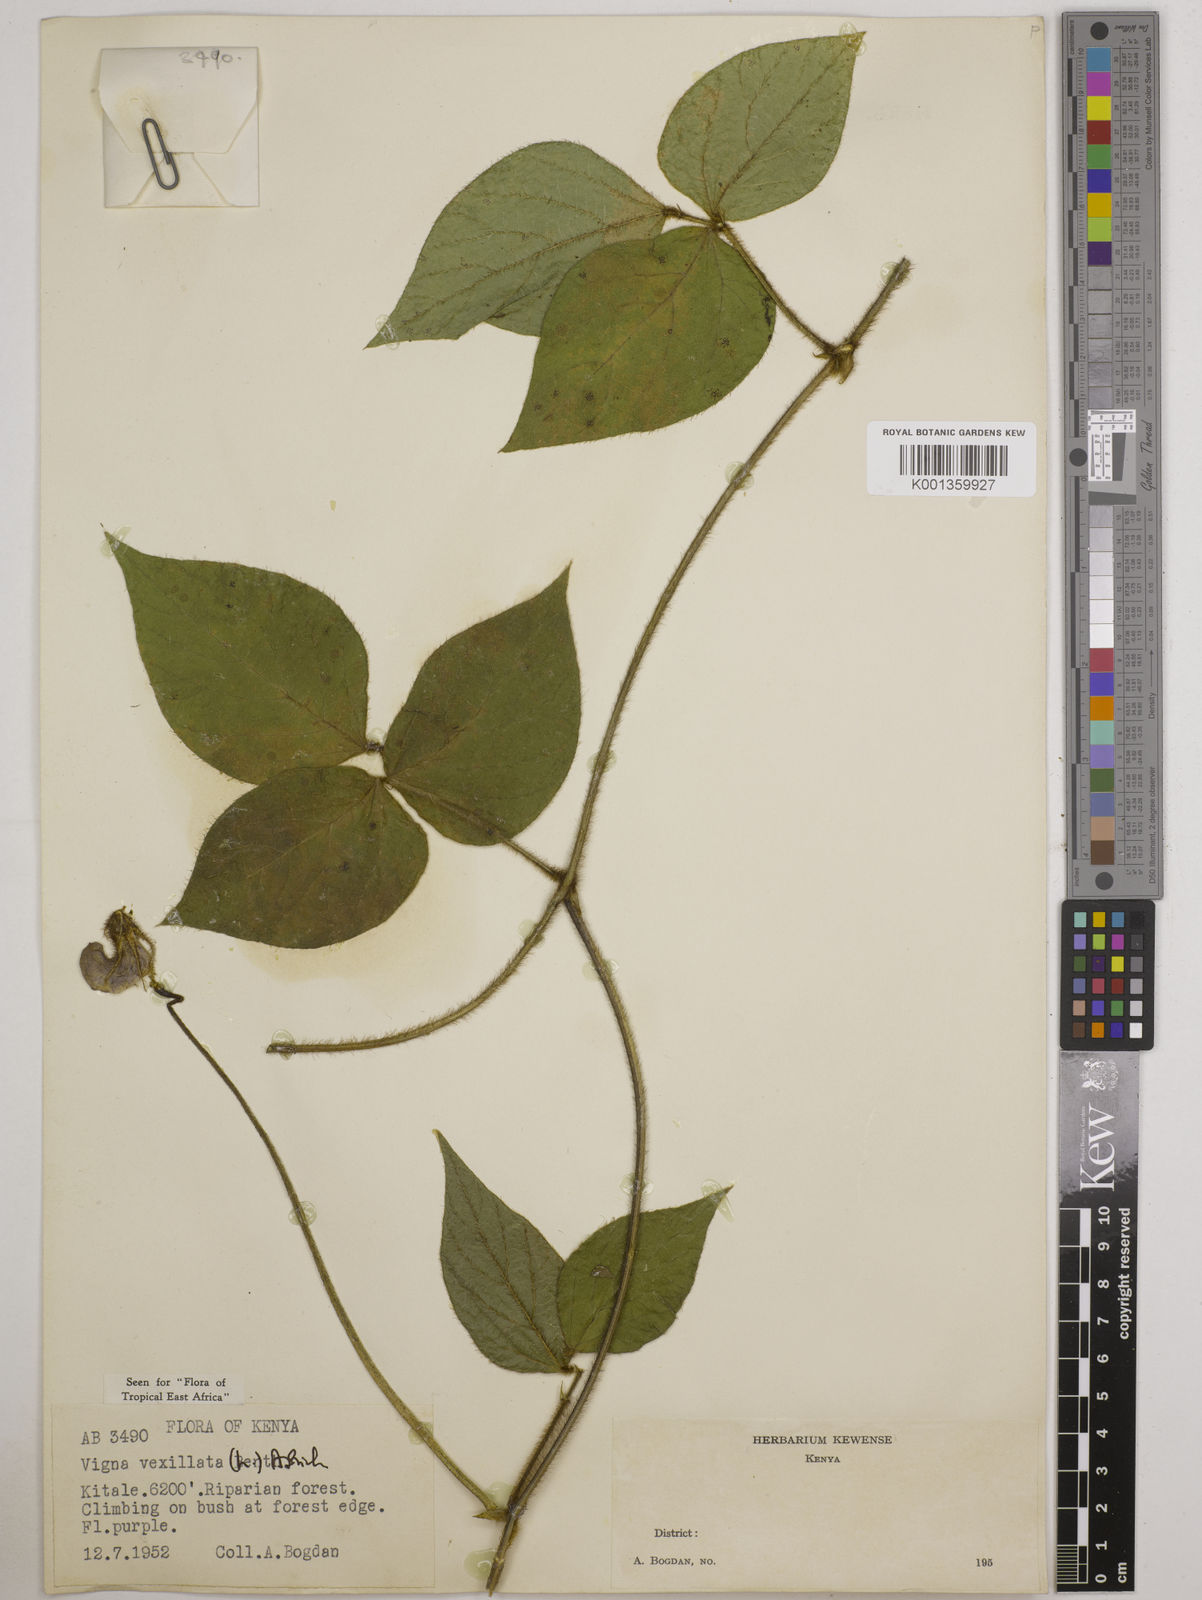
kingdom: Plantae
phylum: Tracheophyta
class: Magnoliopsida
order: Fabales
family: Fabaceae
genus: Vigna
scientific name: Vigna vexillata
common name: Zombi pea
